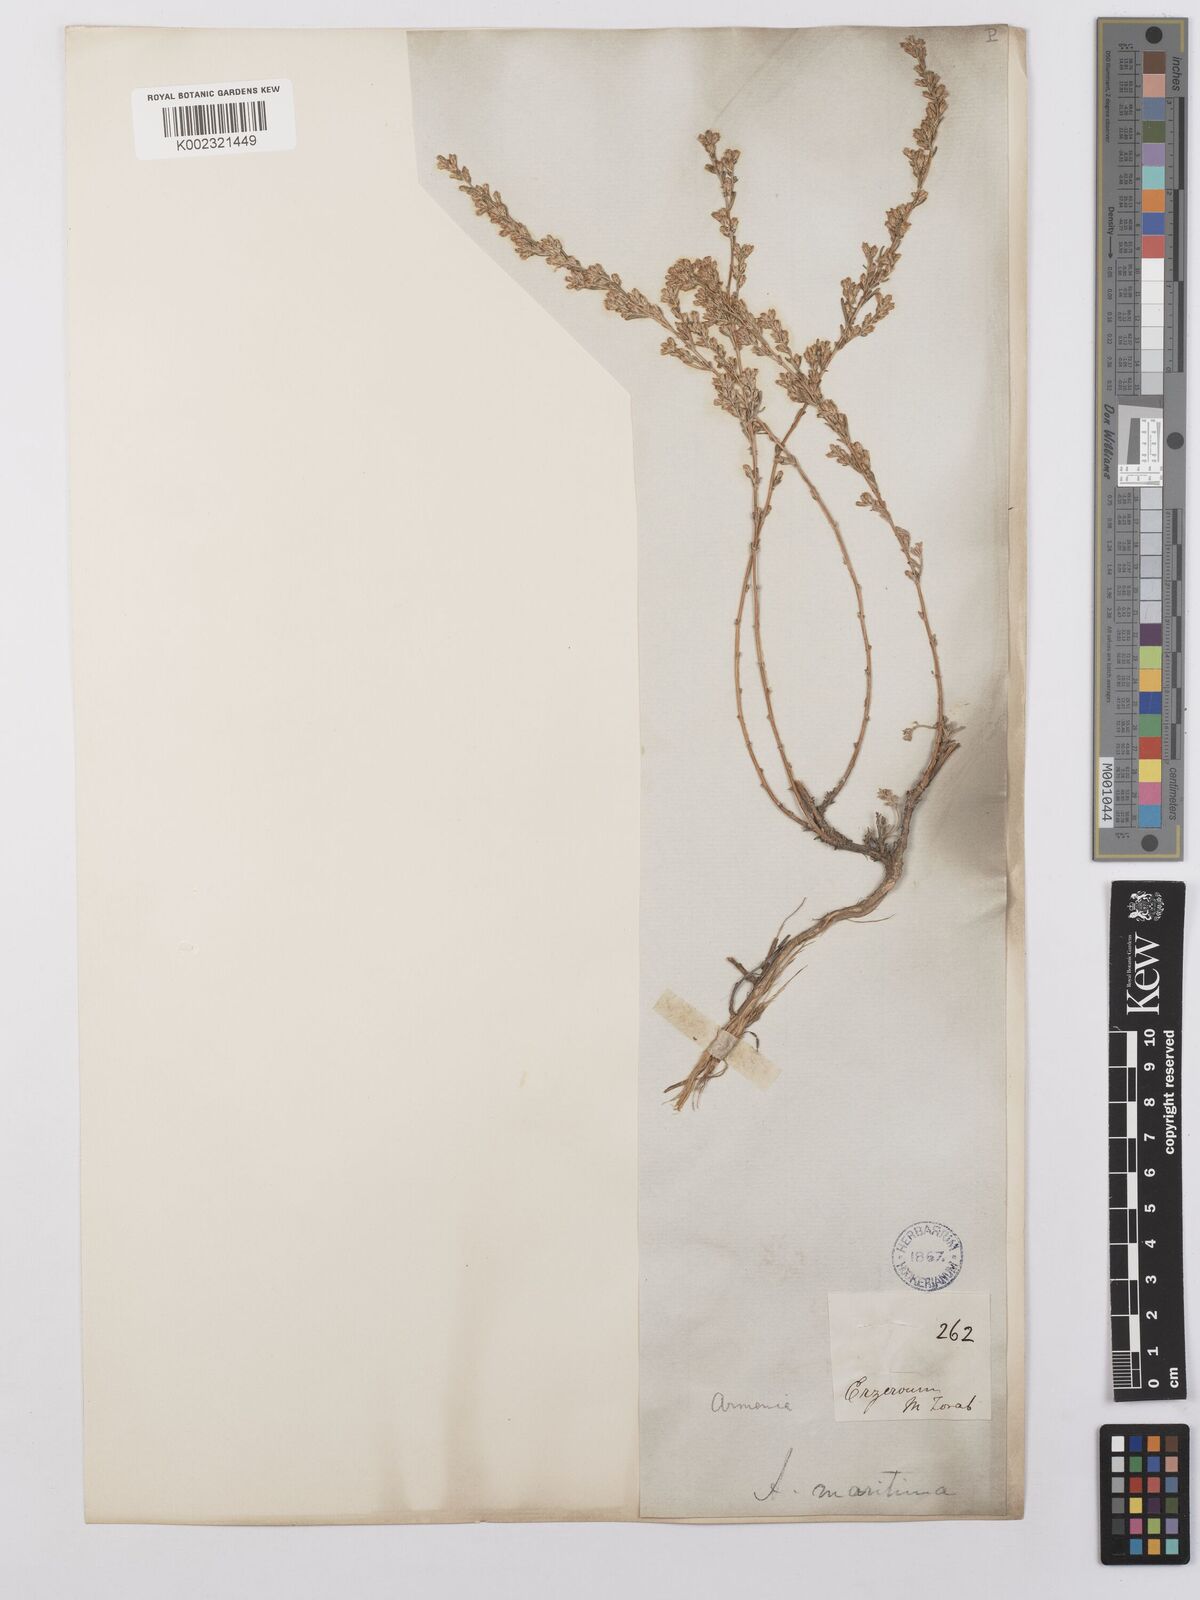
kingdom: Plantae
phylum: Tracheophyta
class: Magnoliopsida
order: Asterales
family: Asteraceae
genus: Artemisia
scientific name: Artemisia santonicum
